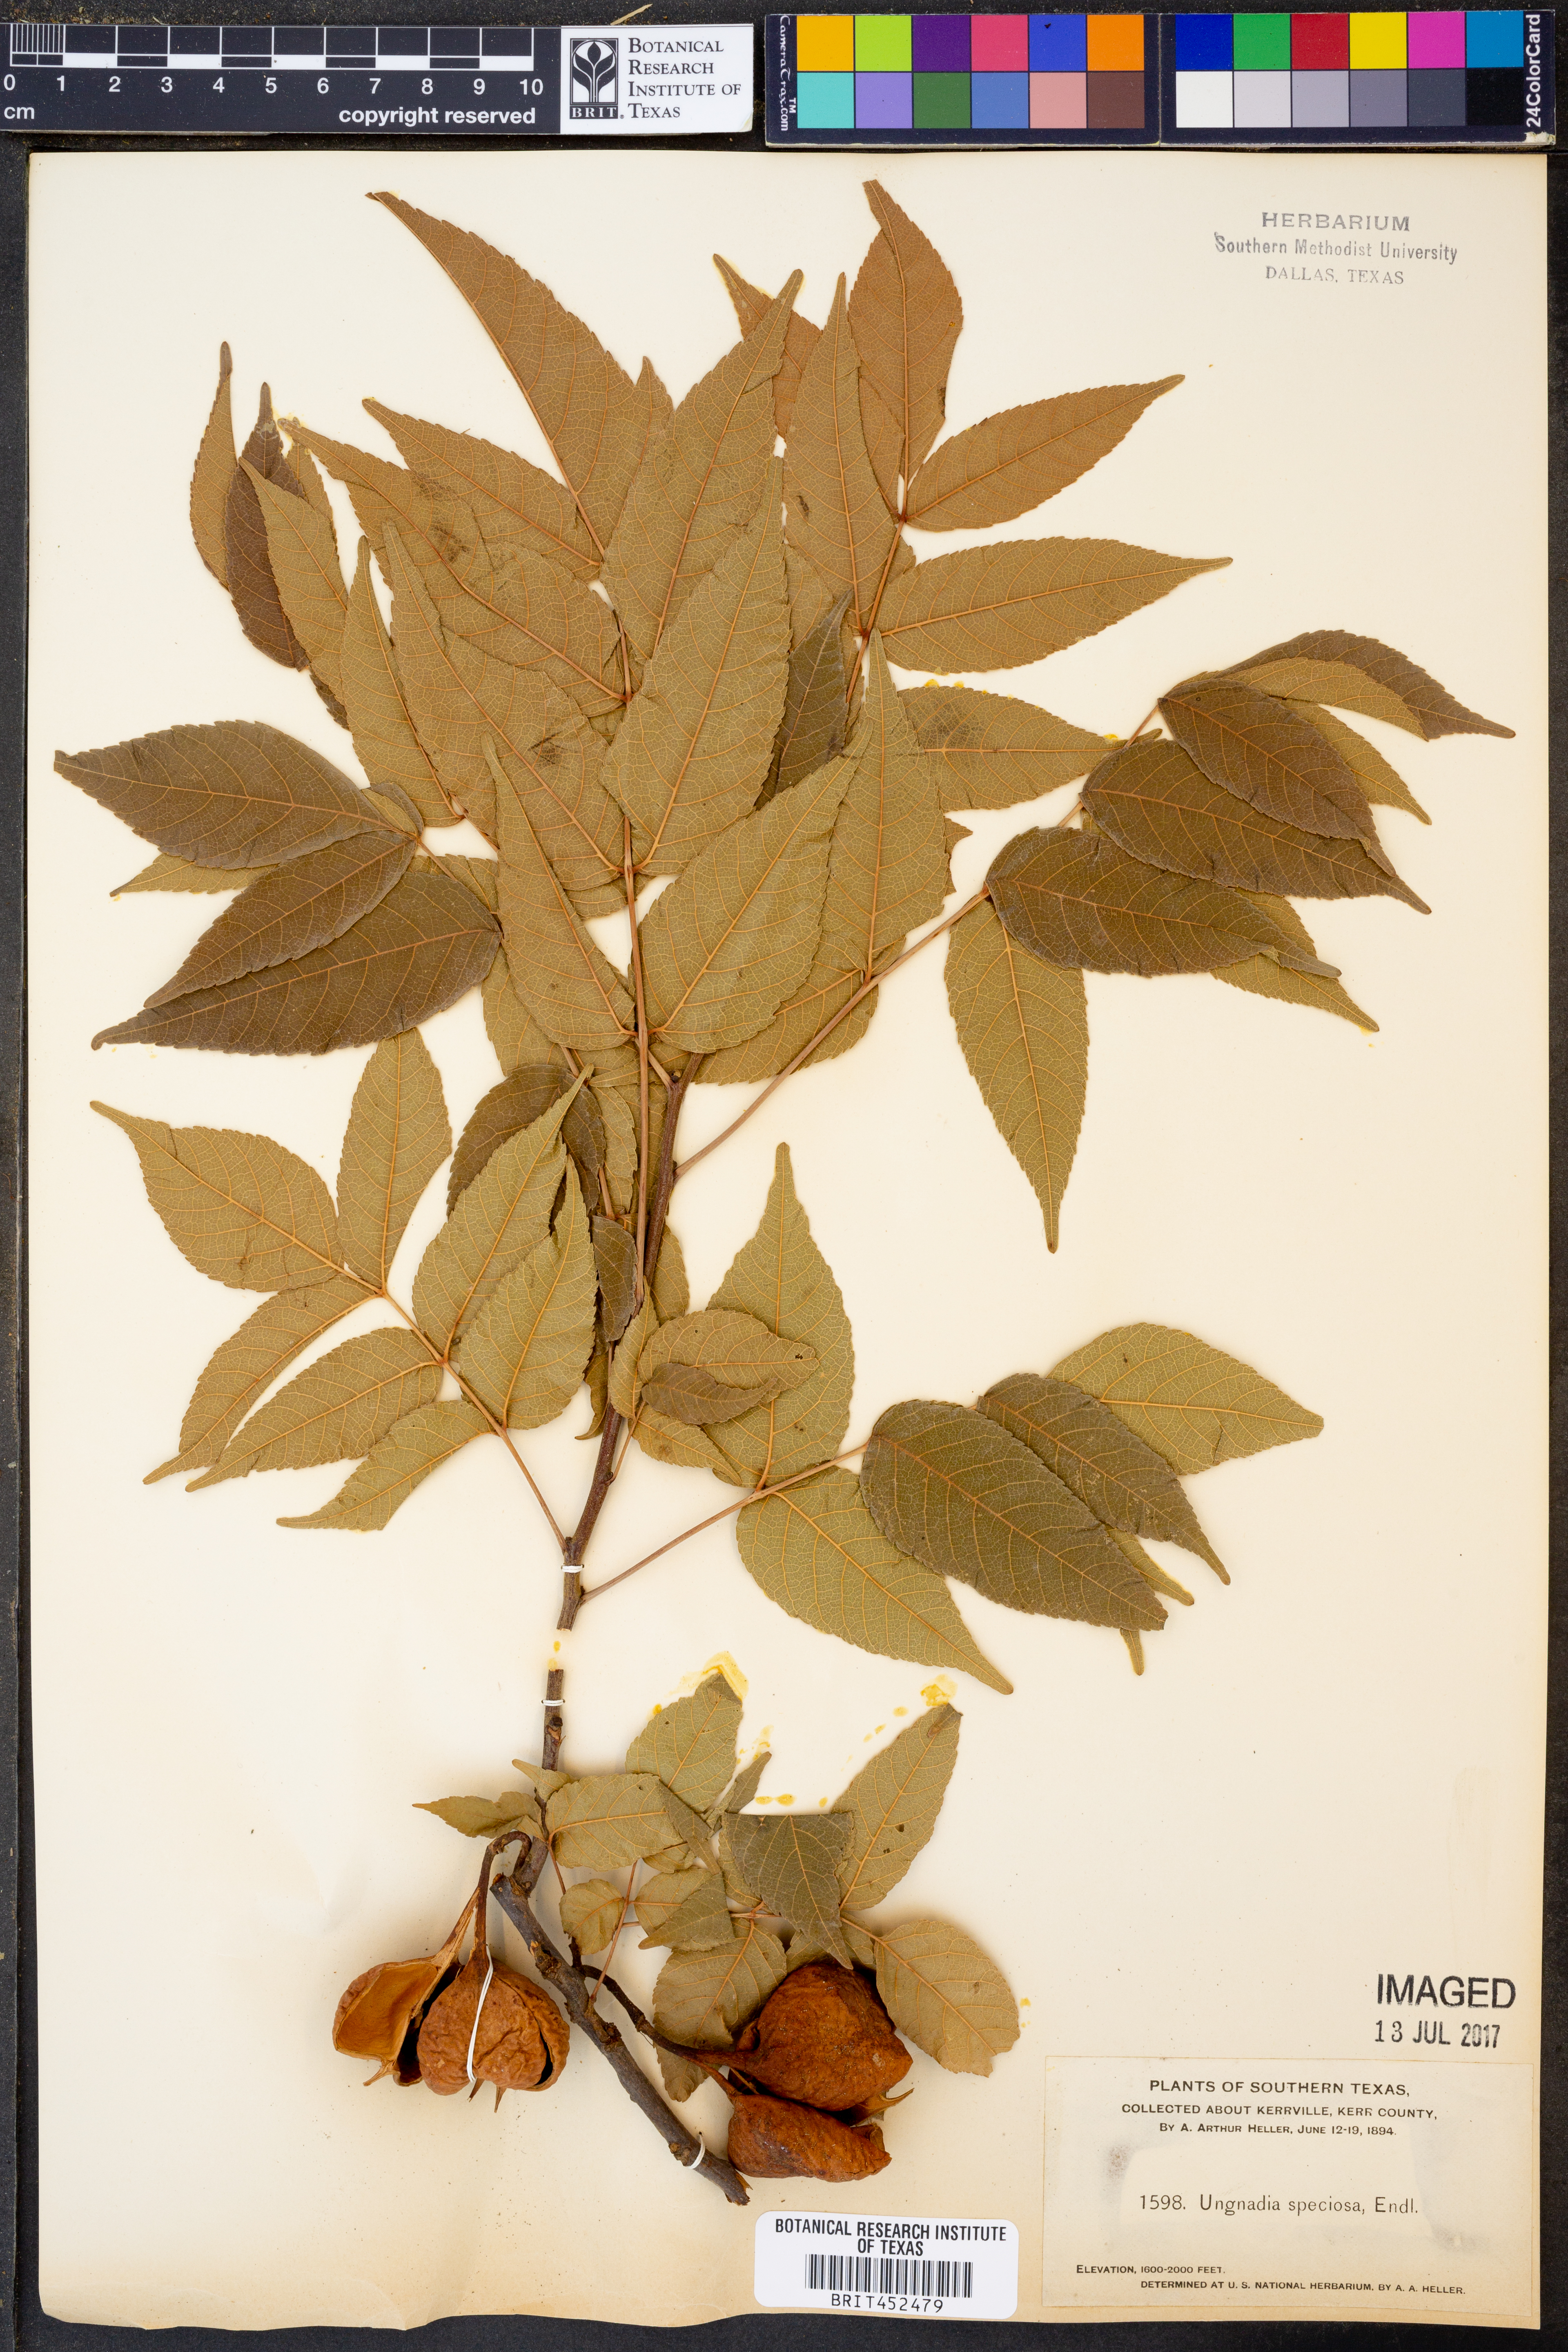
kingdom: Plantae
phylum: Tracheophyta
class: Magnoliopsida
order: Sapindales
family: Sapindaceae
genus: Ungnadia
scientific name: Ungnadia speciosa
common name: Texas-buckeye
